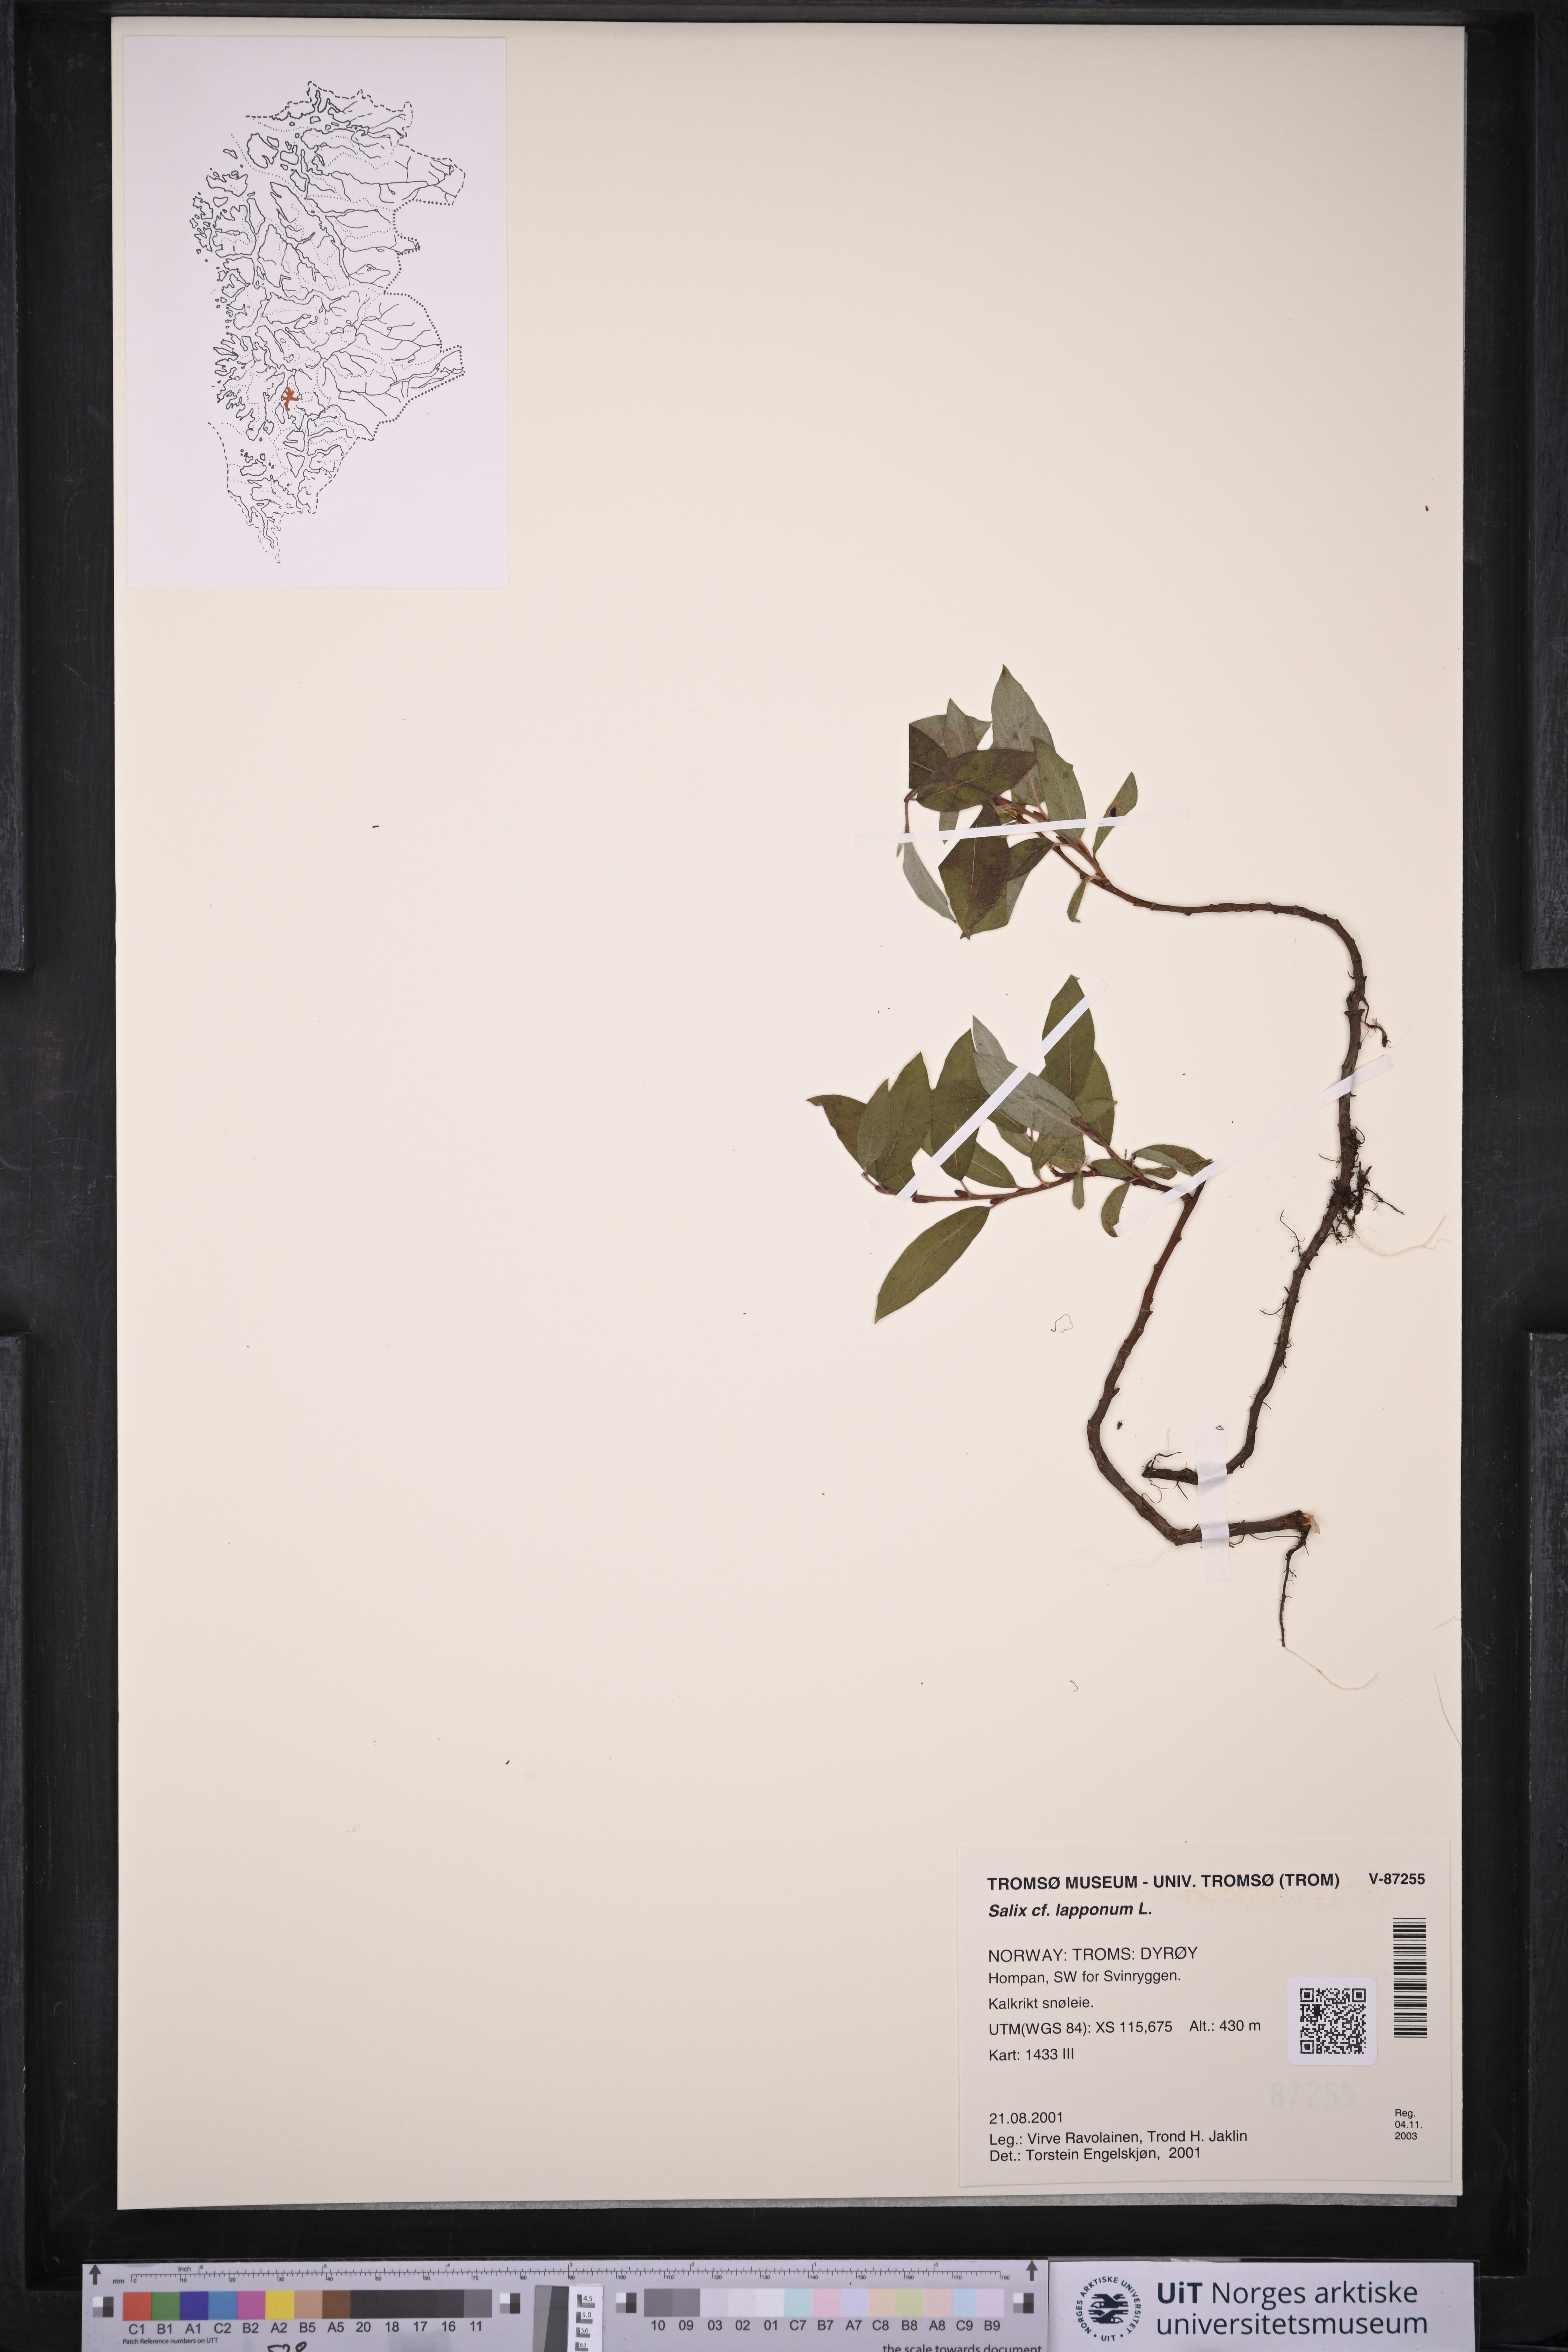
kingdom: Plantae
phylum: Tracheophyta
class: Magnoliopsida
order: Malpighiales
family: Salicaceae
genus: Salix
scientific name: Salix lapponum
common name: Downy willow
